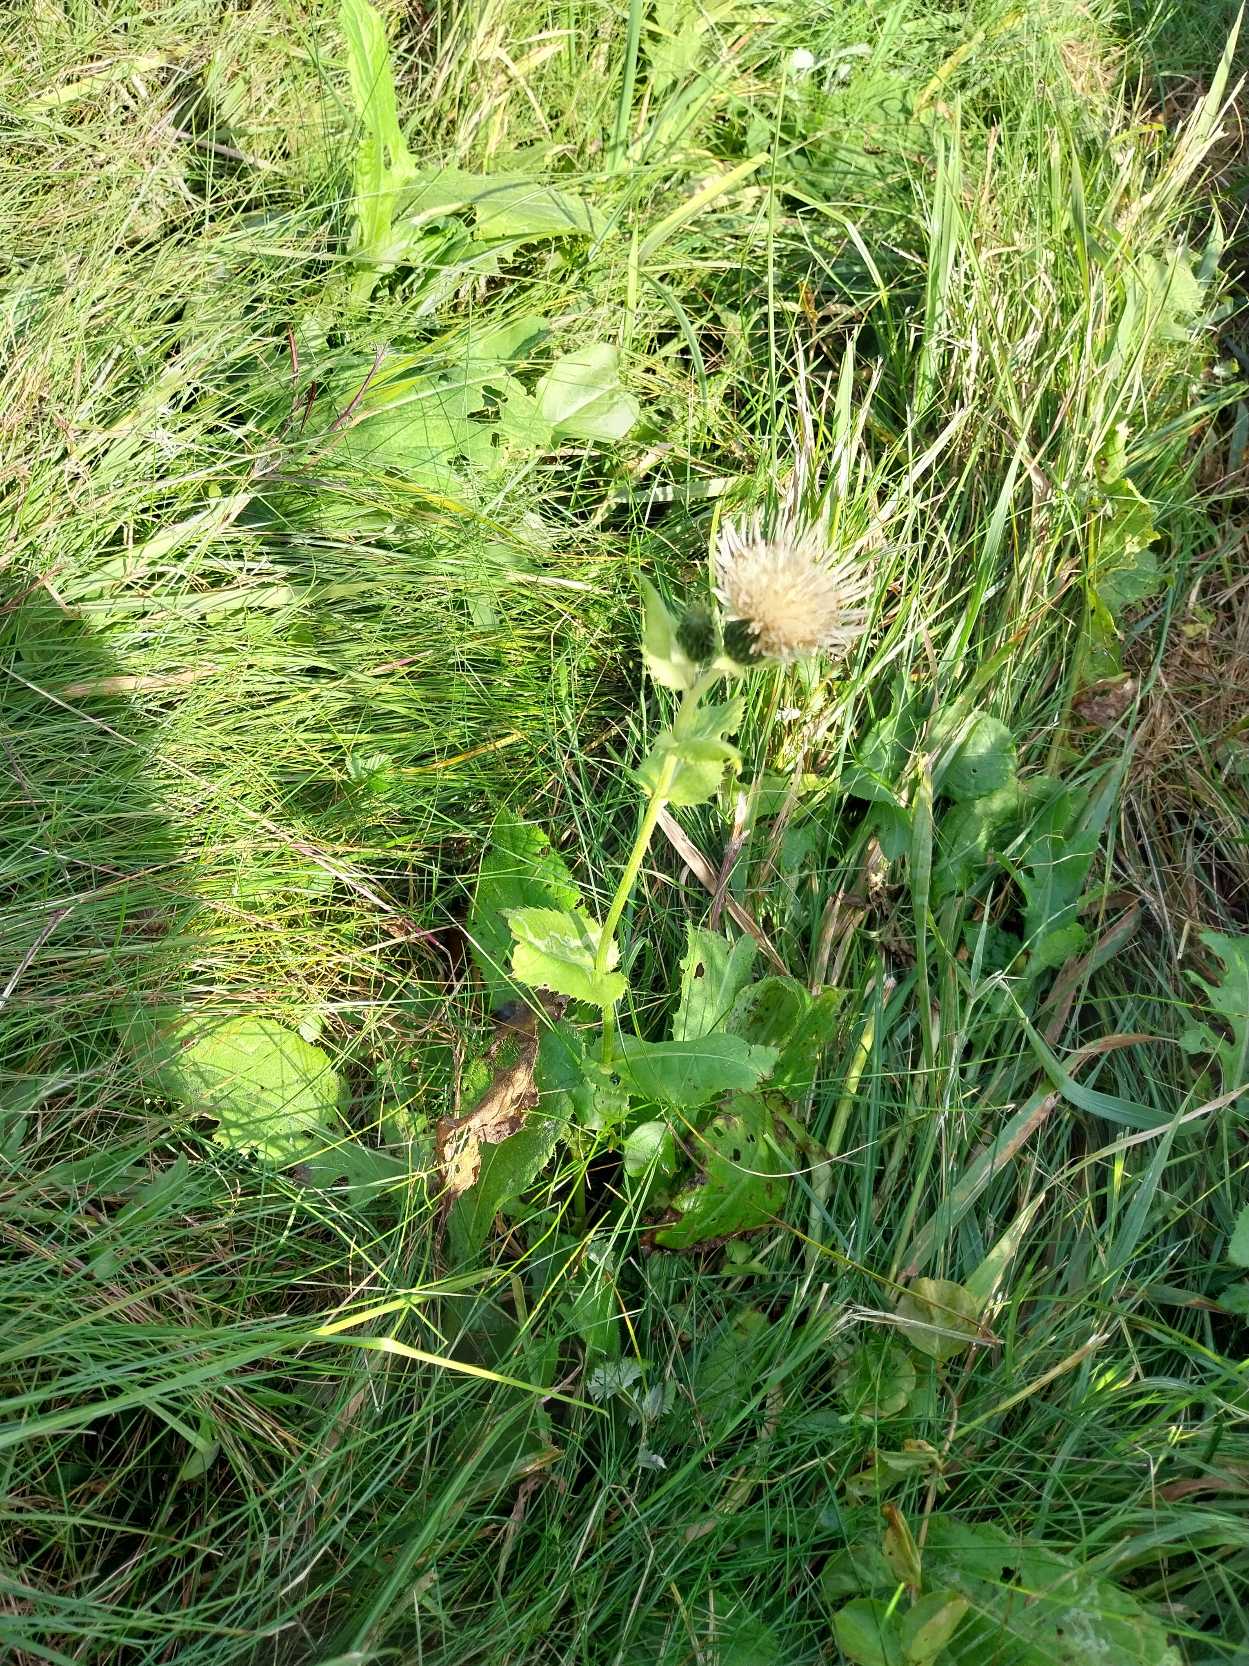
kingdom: Plantae
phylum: Tracheophyta
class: Magnoliopsida
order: Asterales
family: Asteraceae
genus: Cirsium
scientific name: Cirsium oleraceum
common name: Kål-tidsel
